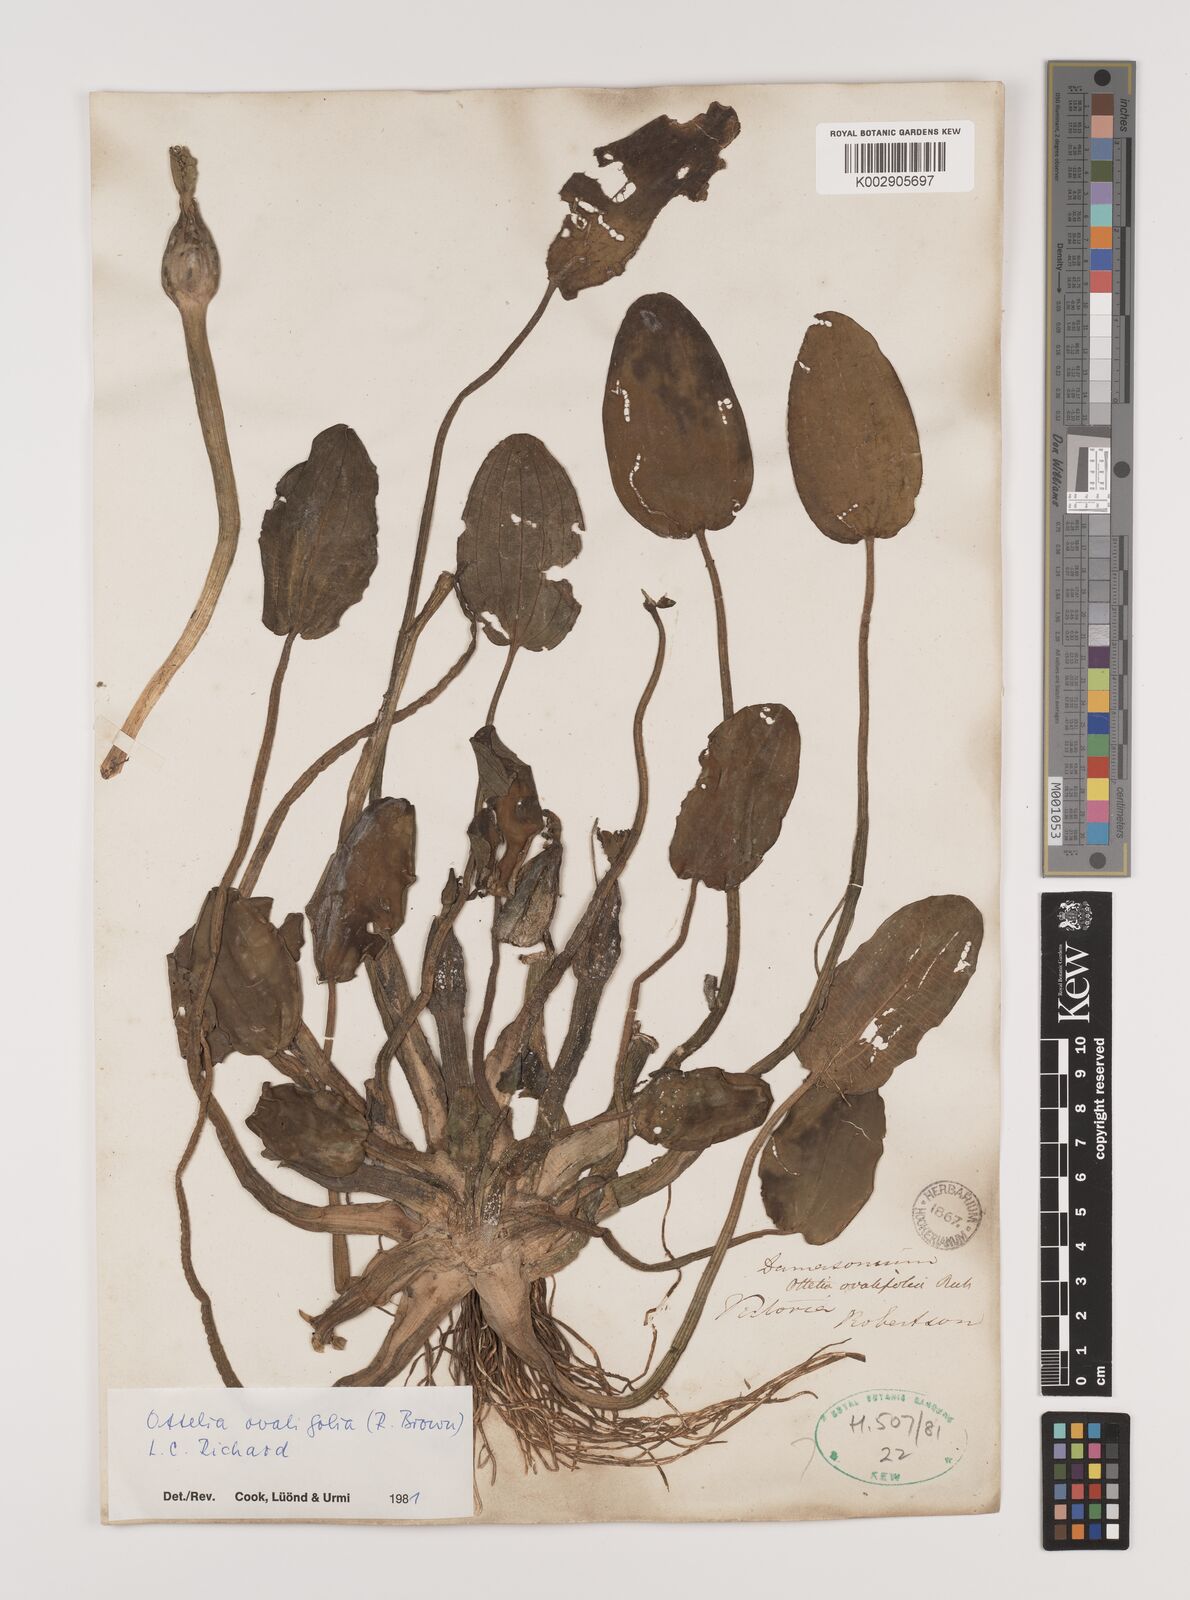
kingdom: Plantae
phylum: Tracheophyta
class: Liliopsida
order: Alismatales
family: Hydrocharitaceae
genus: Ottelia
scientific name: Ottelia ovalifolia
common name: Swamp-lily
